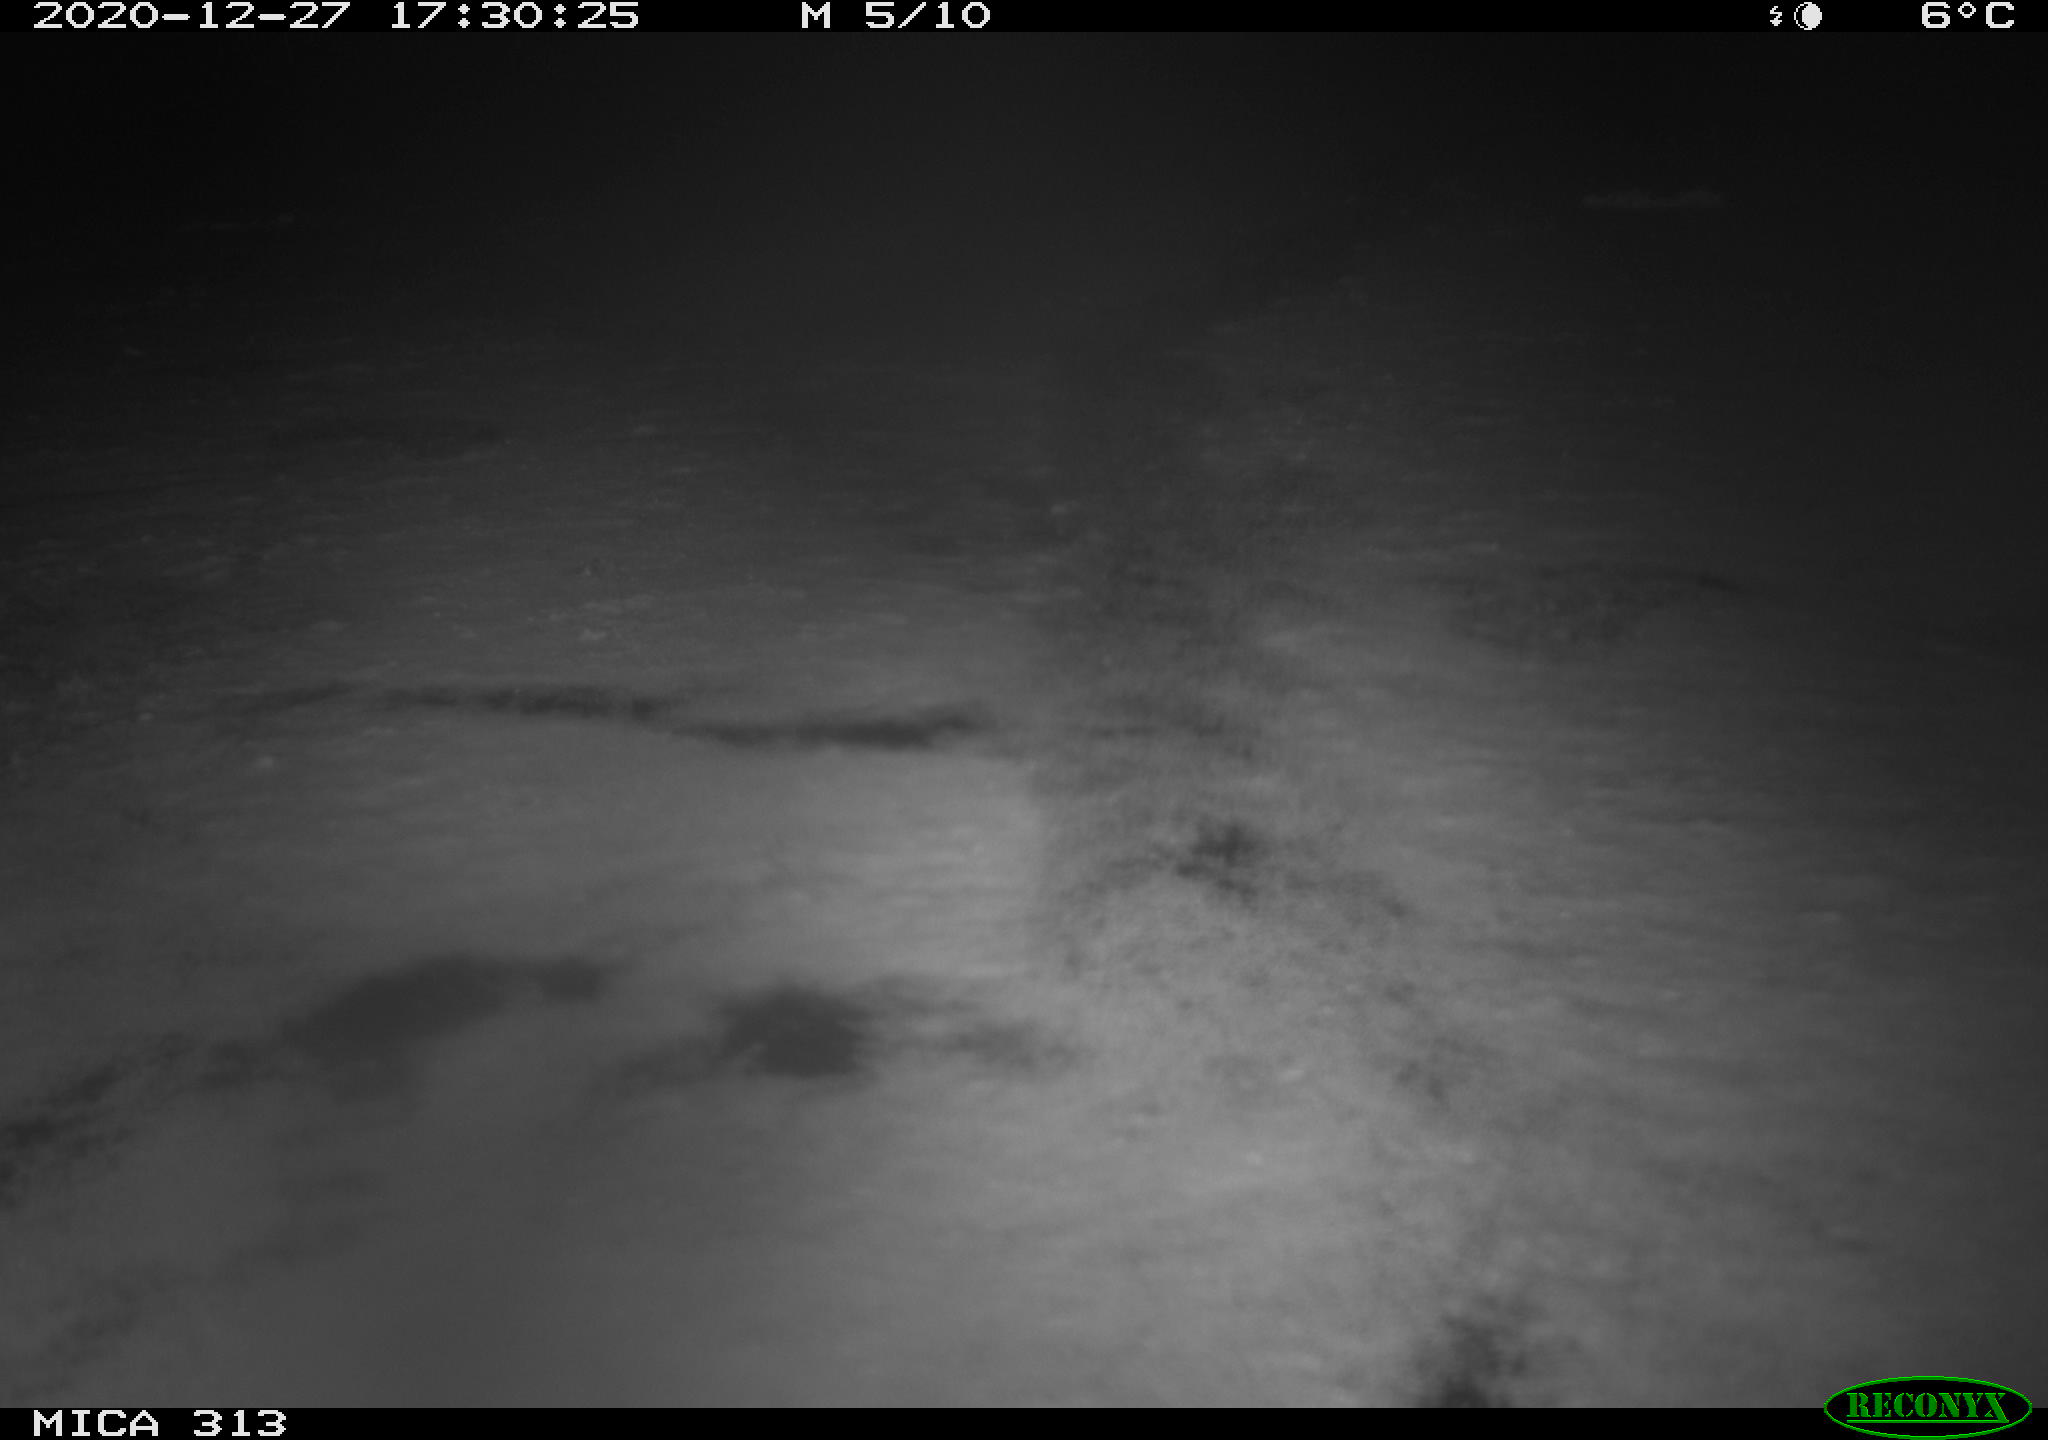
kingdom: Animalia
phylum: Chordata
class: Aves
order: Gruiformes
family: Rallidae
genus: Gallinula
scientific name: Gallinula chloropus
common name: Common moorhen
